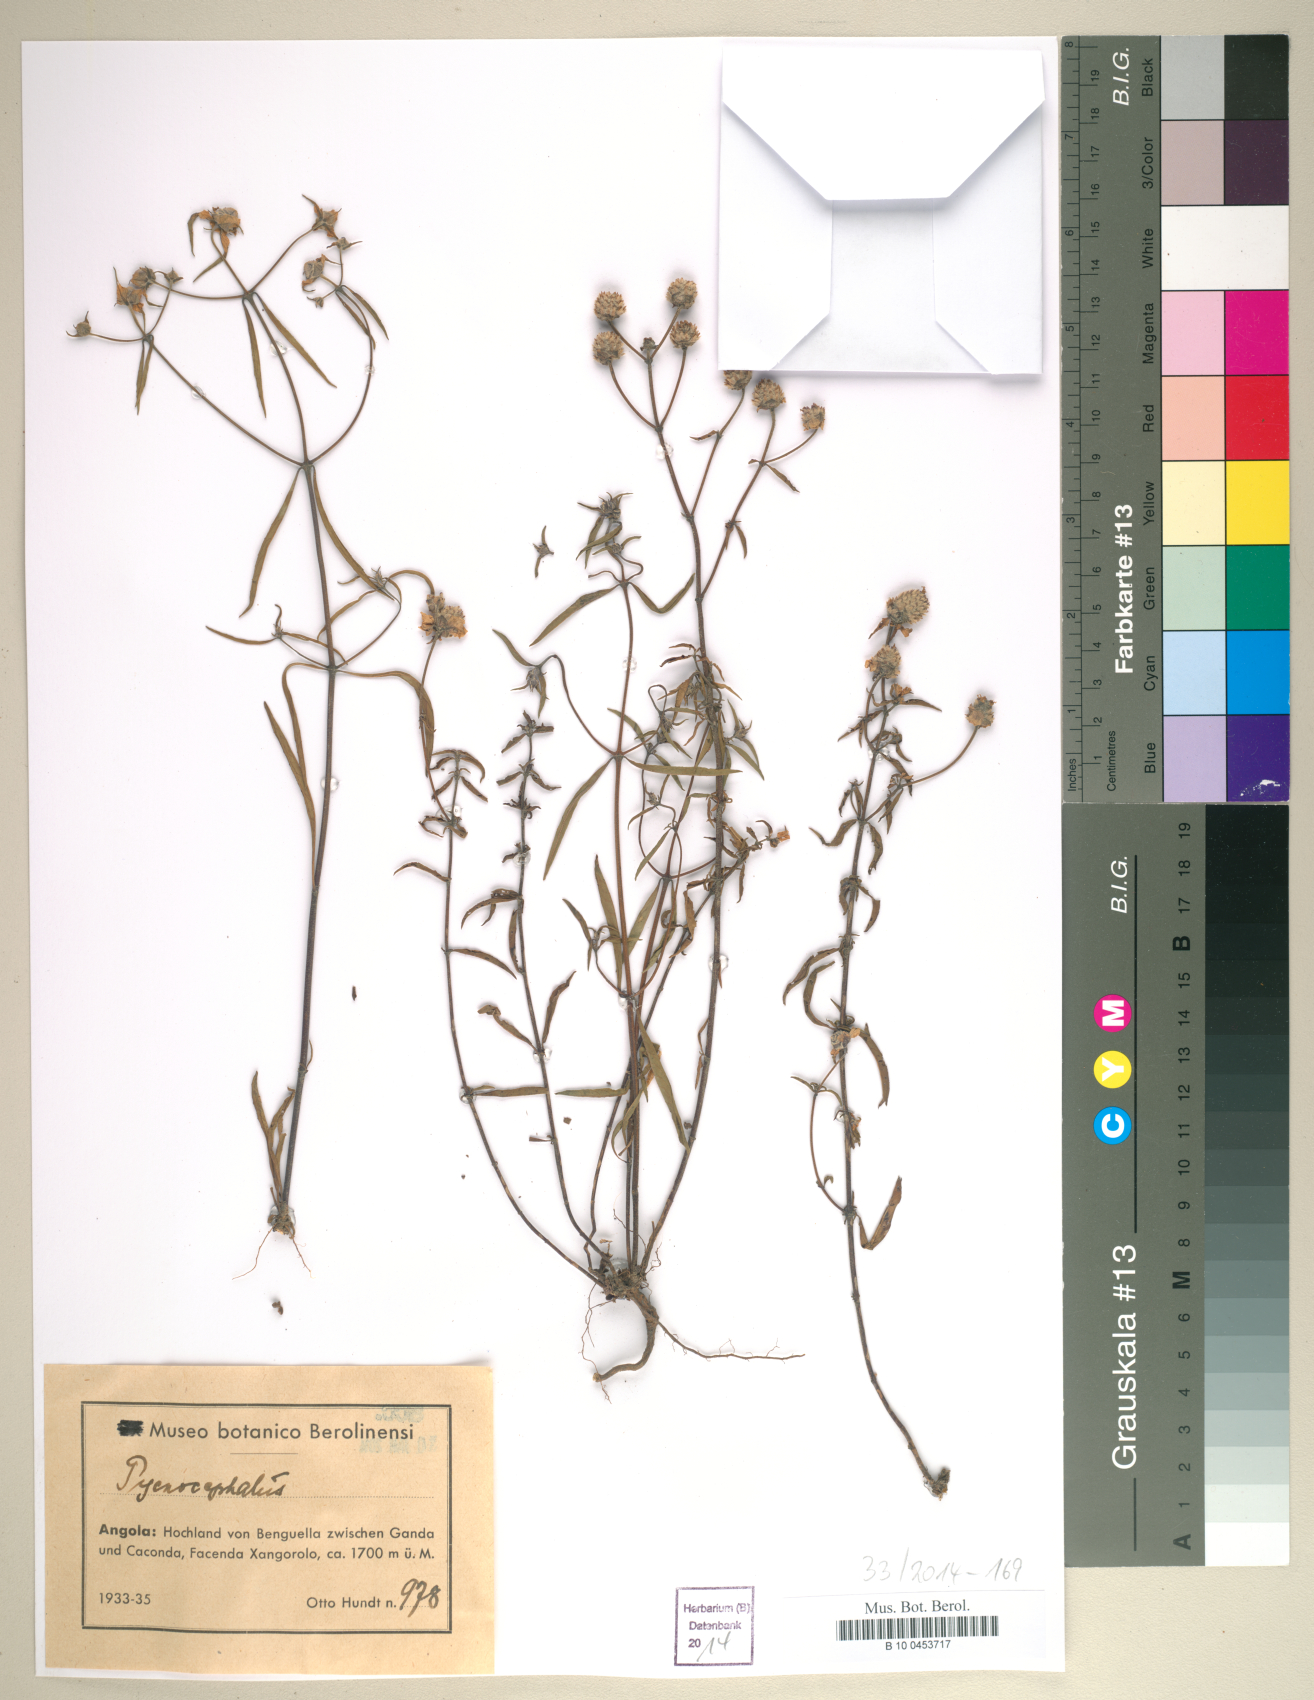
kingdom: Plantae
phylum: Tracheophyta
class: Magnoliopsida
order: Asterales
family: Asteraceae
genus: Chresta
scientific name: Chresta
